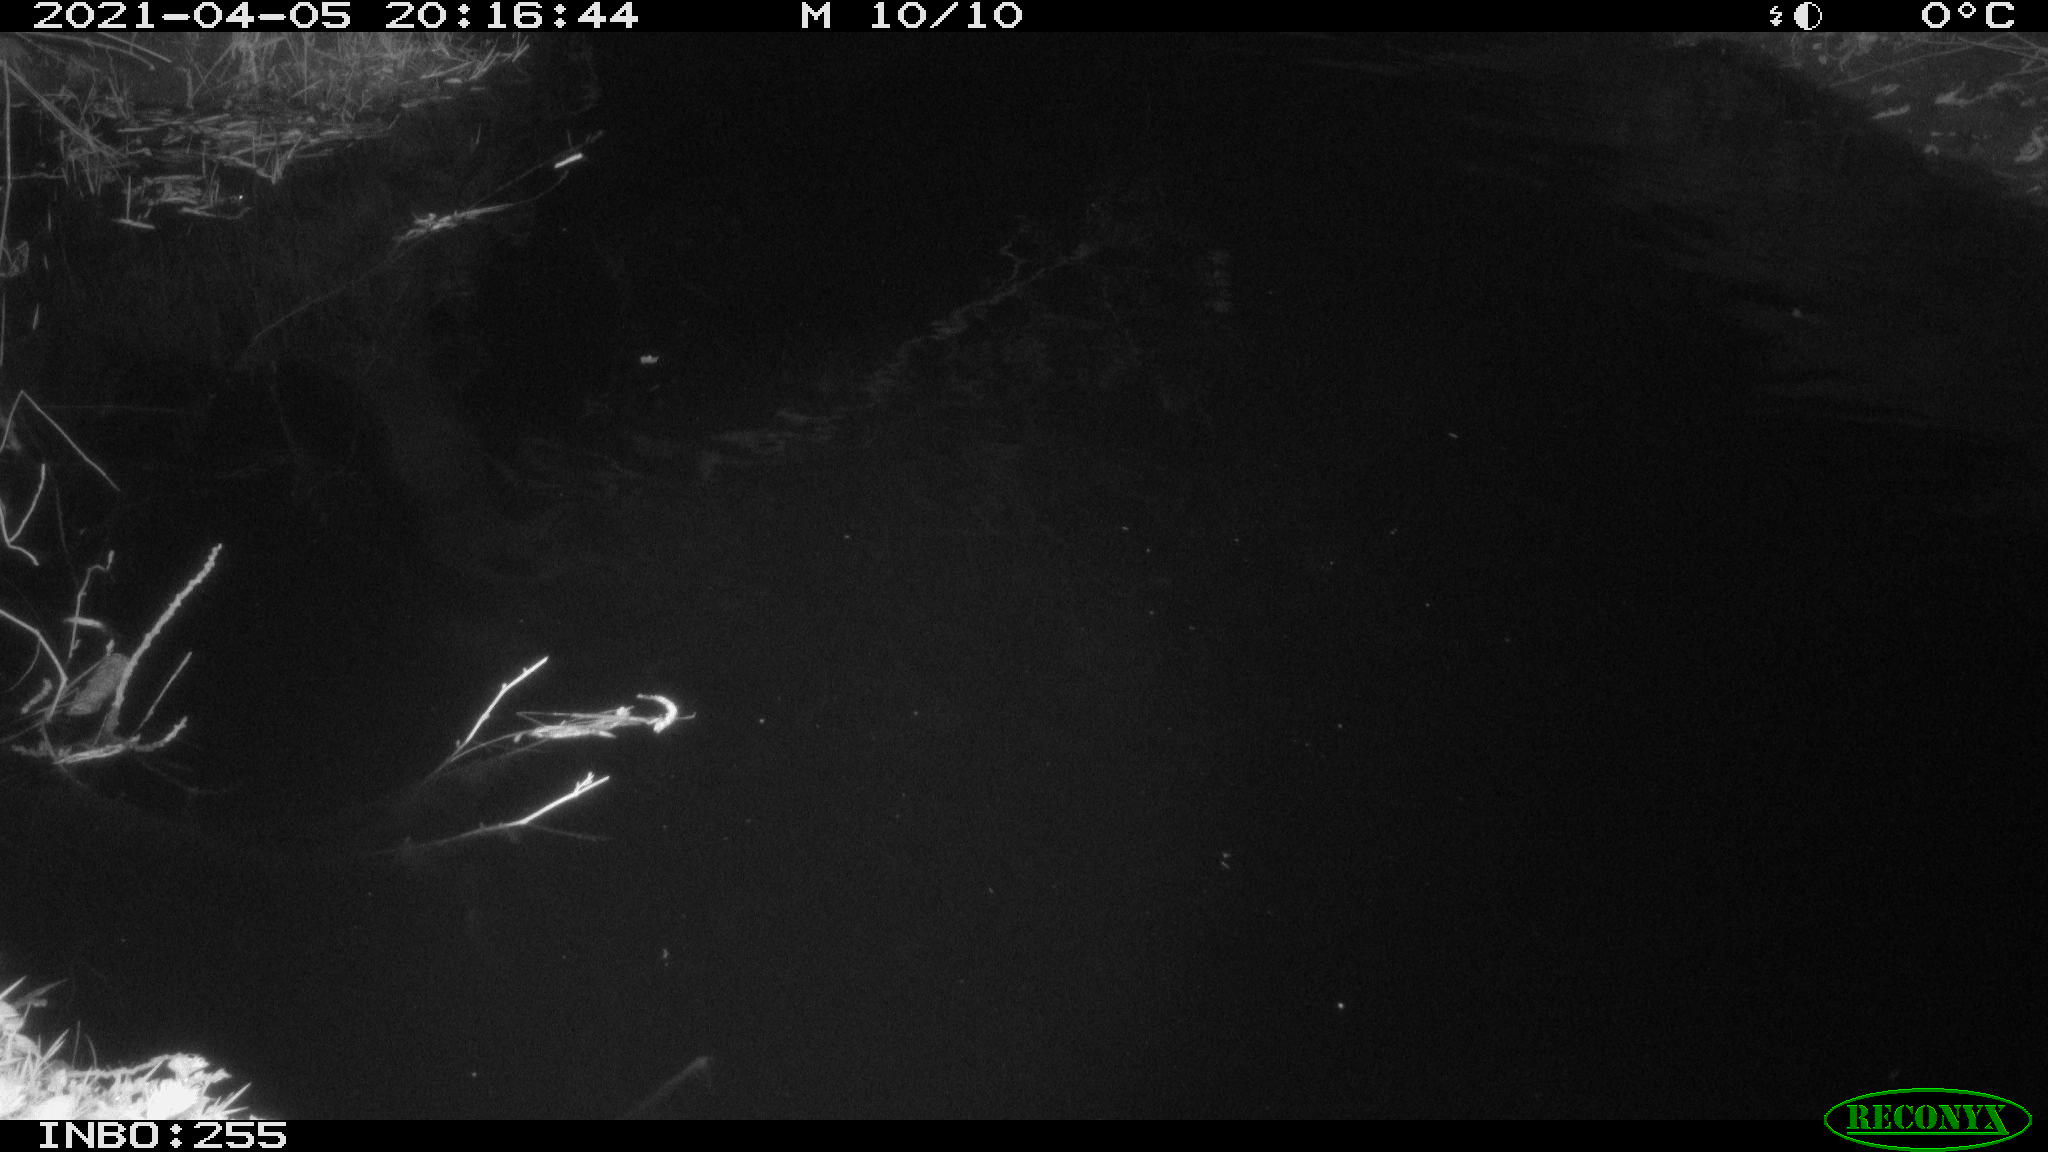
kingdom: Animalia
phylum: Chordata
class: Aves
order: Anseriformes
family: Anatidae
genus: Anas
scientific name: Anas platyrhynchos
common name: Mallard
